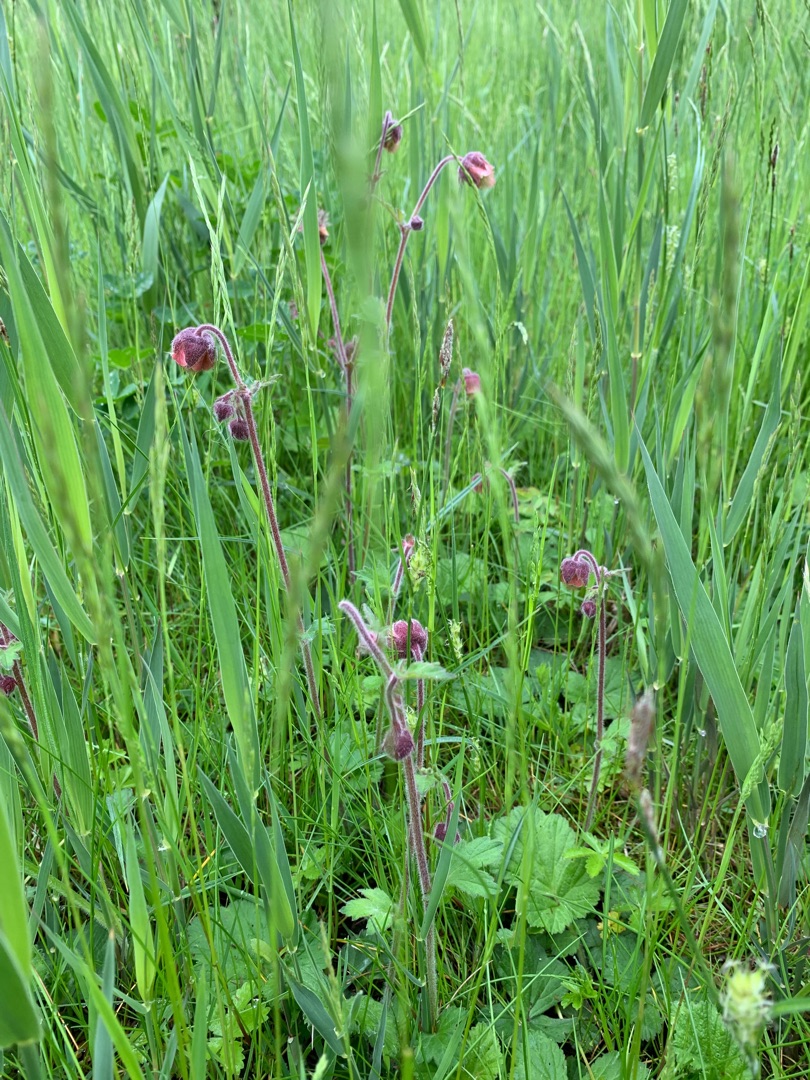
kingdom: Plantae
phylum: Tracheophyta
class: Magnoliopsida
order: Rosales
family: Rosaceae
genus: Geum
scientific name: Geum rivale
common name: Eng-nellikerod
